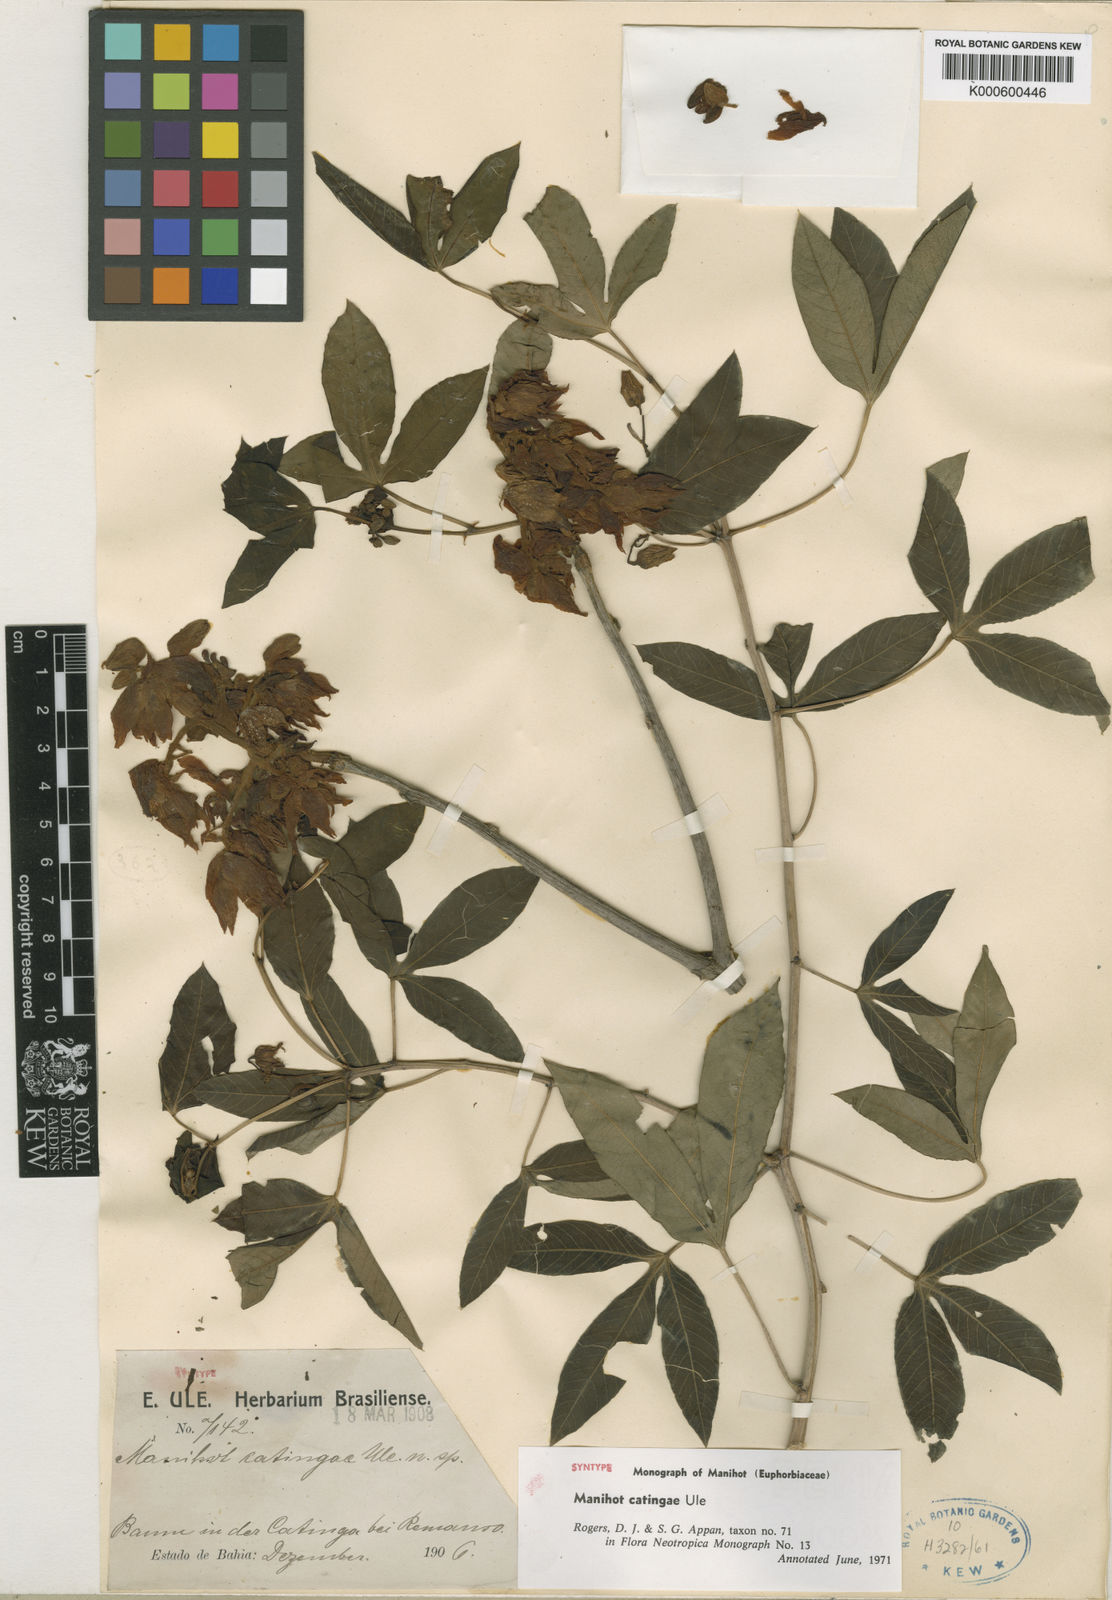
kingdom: Plantae
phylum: Tracheophyta
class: Magnoliopsida
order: Malpighiales
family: Euphorbiaceae
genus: Manihot
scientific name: Manihot catingae
